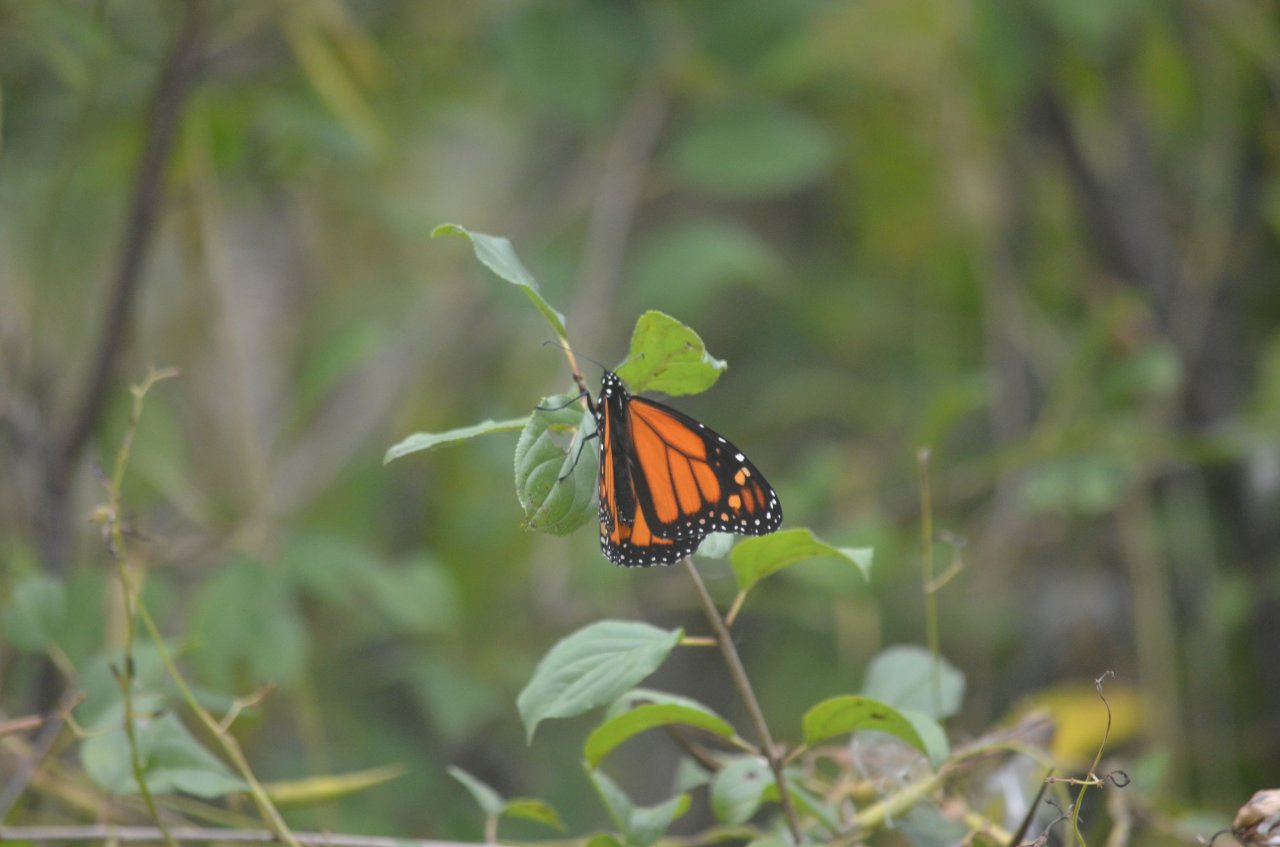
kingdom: Animalia
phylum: Arthropoda
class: Insecta
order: Lepidoptera
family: Nymphalidae
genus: Danaus
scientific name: Danaus plexippus
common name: Monarch
